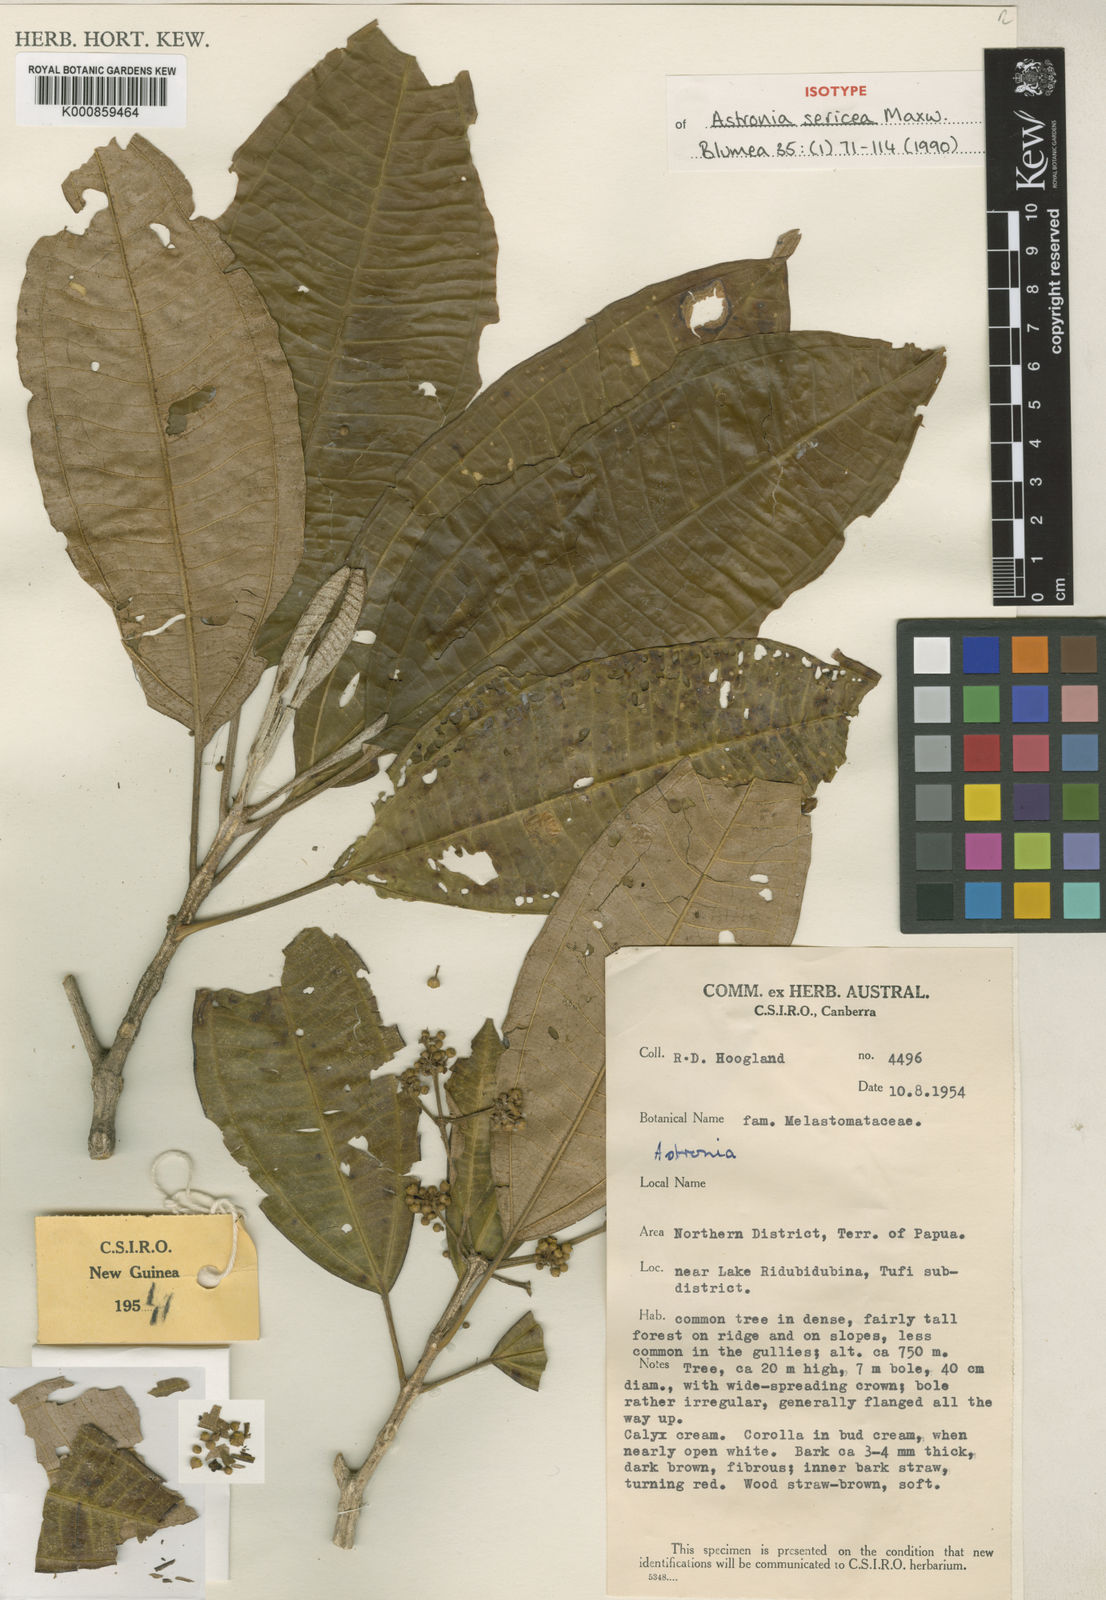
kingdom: Plantae
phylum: Tracheophyta
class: Magnoliopsida
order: Myrtales
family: Melastomataceae
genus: Astronia
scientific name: Astronia sericea
